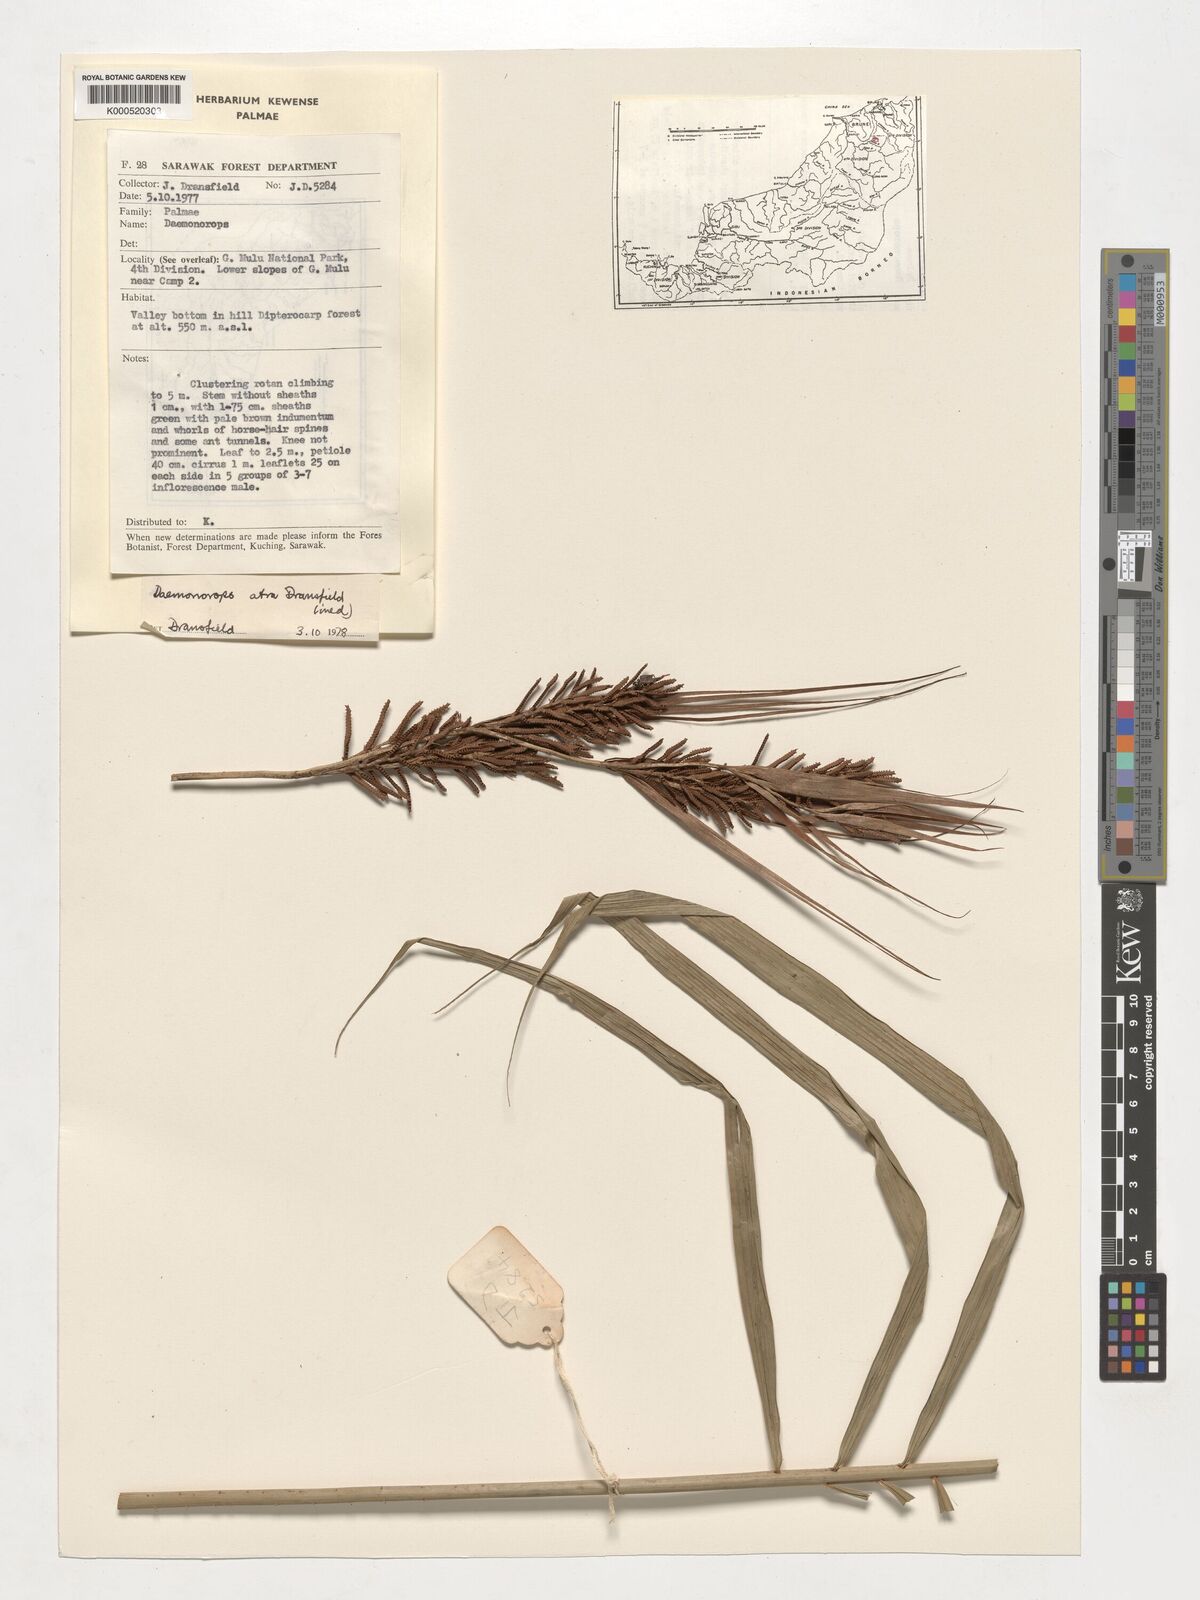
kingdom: Plantae
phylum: Tracheophyta
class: Liliopsida
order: Arecales
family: Arecaceae
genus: Calamus
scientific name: Calamus ater
